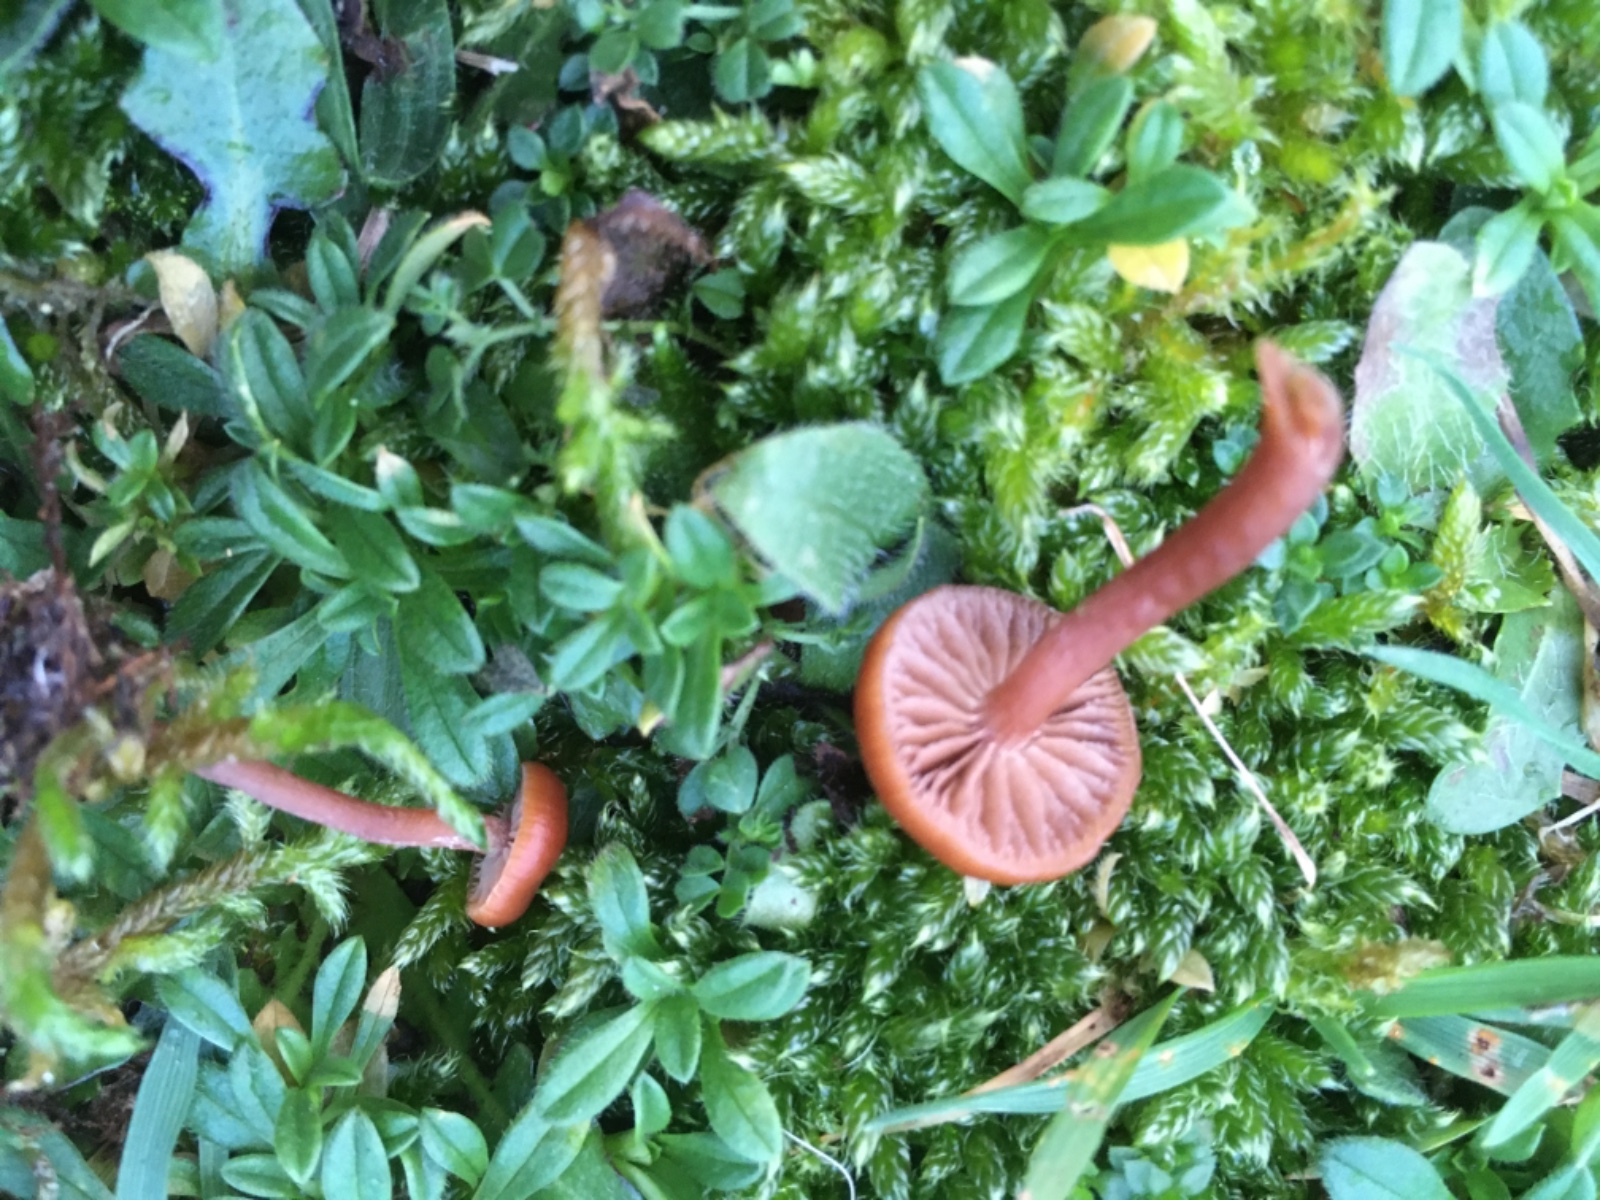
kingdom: Fungi
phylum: Basidiomycota
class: Agaricomycetes
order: Agaricales
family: Strophariaceae
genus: Deconica
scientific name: Deconica montana
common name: rødbrun stråhat
